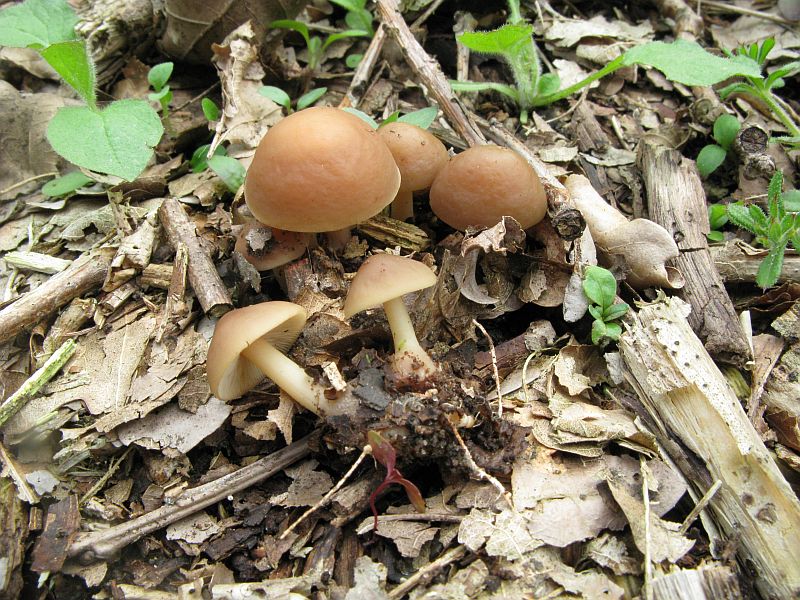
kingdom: Fungi
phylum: Basidiomycota
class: Agaricomycetes
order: Agaricales
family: Omphalotaceae
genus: Gymnopus
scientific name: Gymnopus ocior
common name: mørk fladhat
